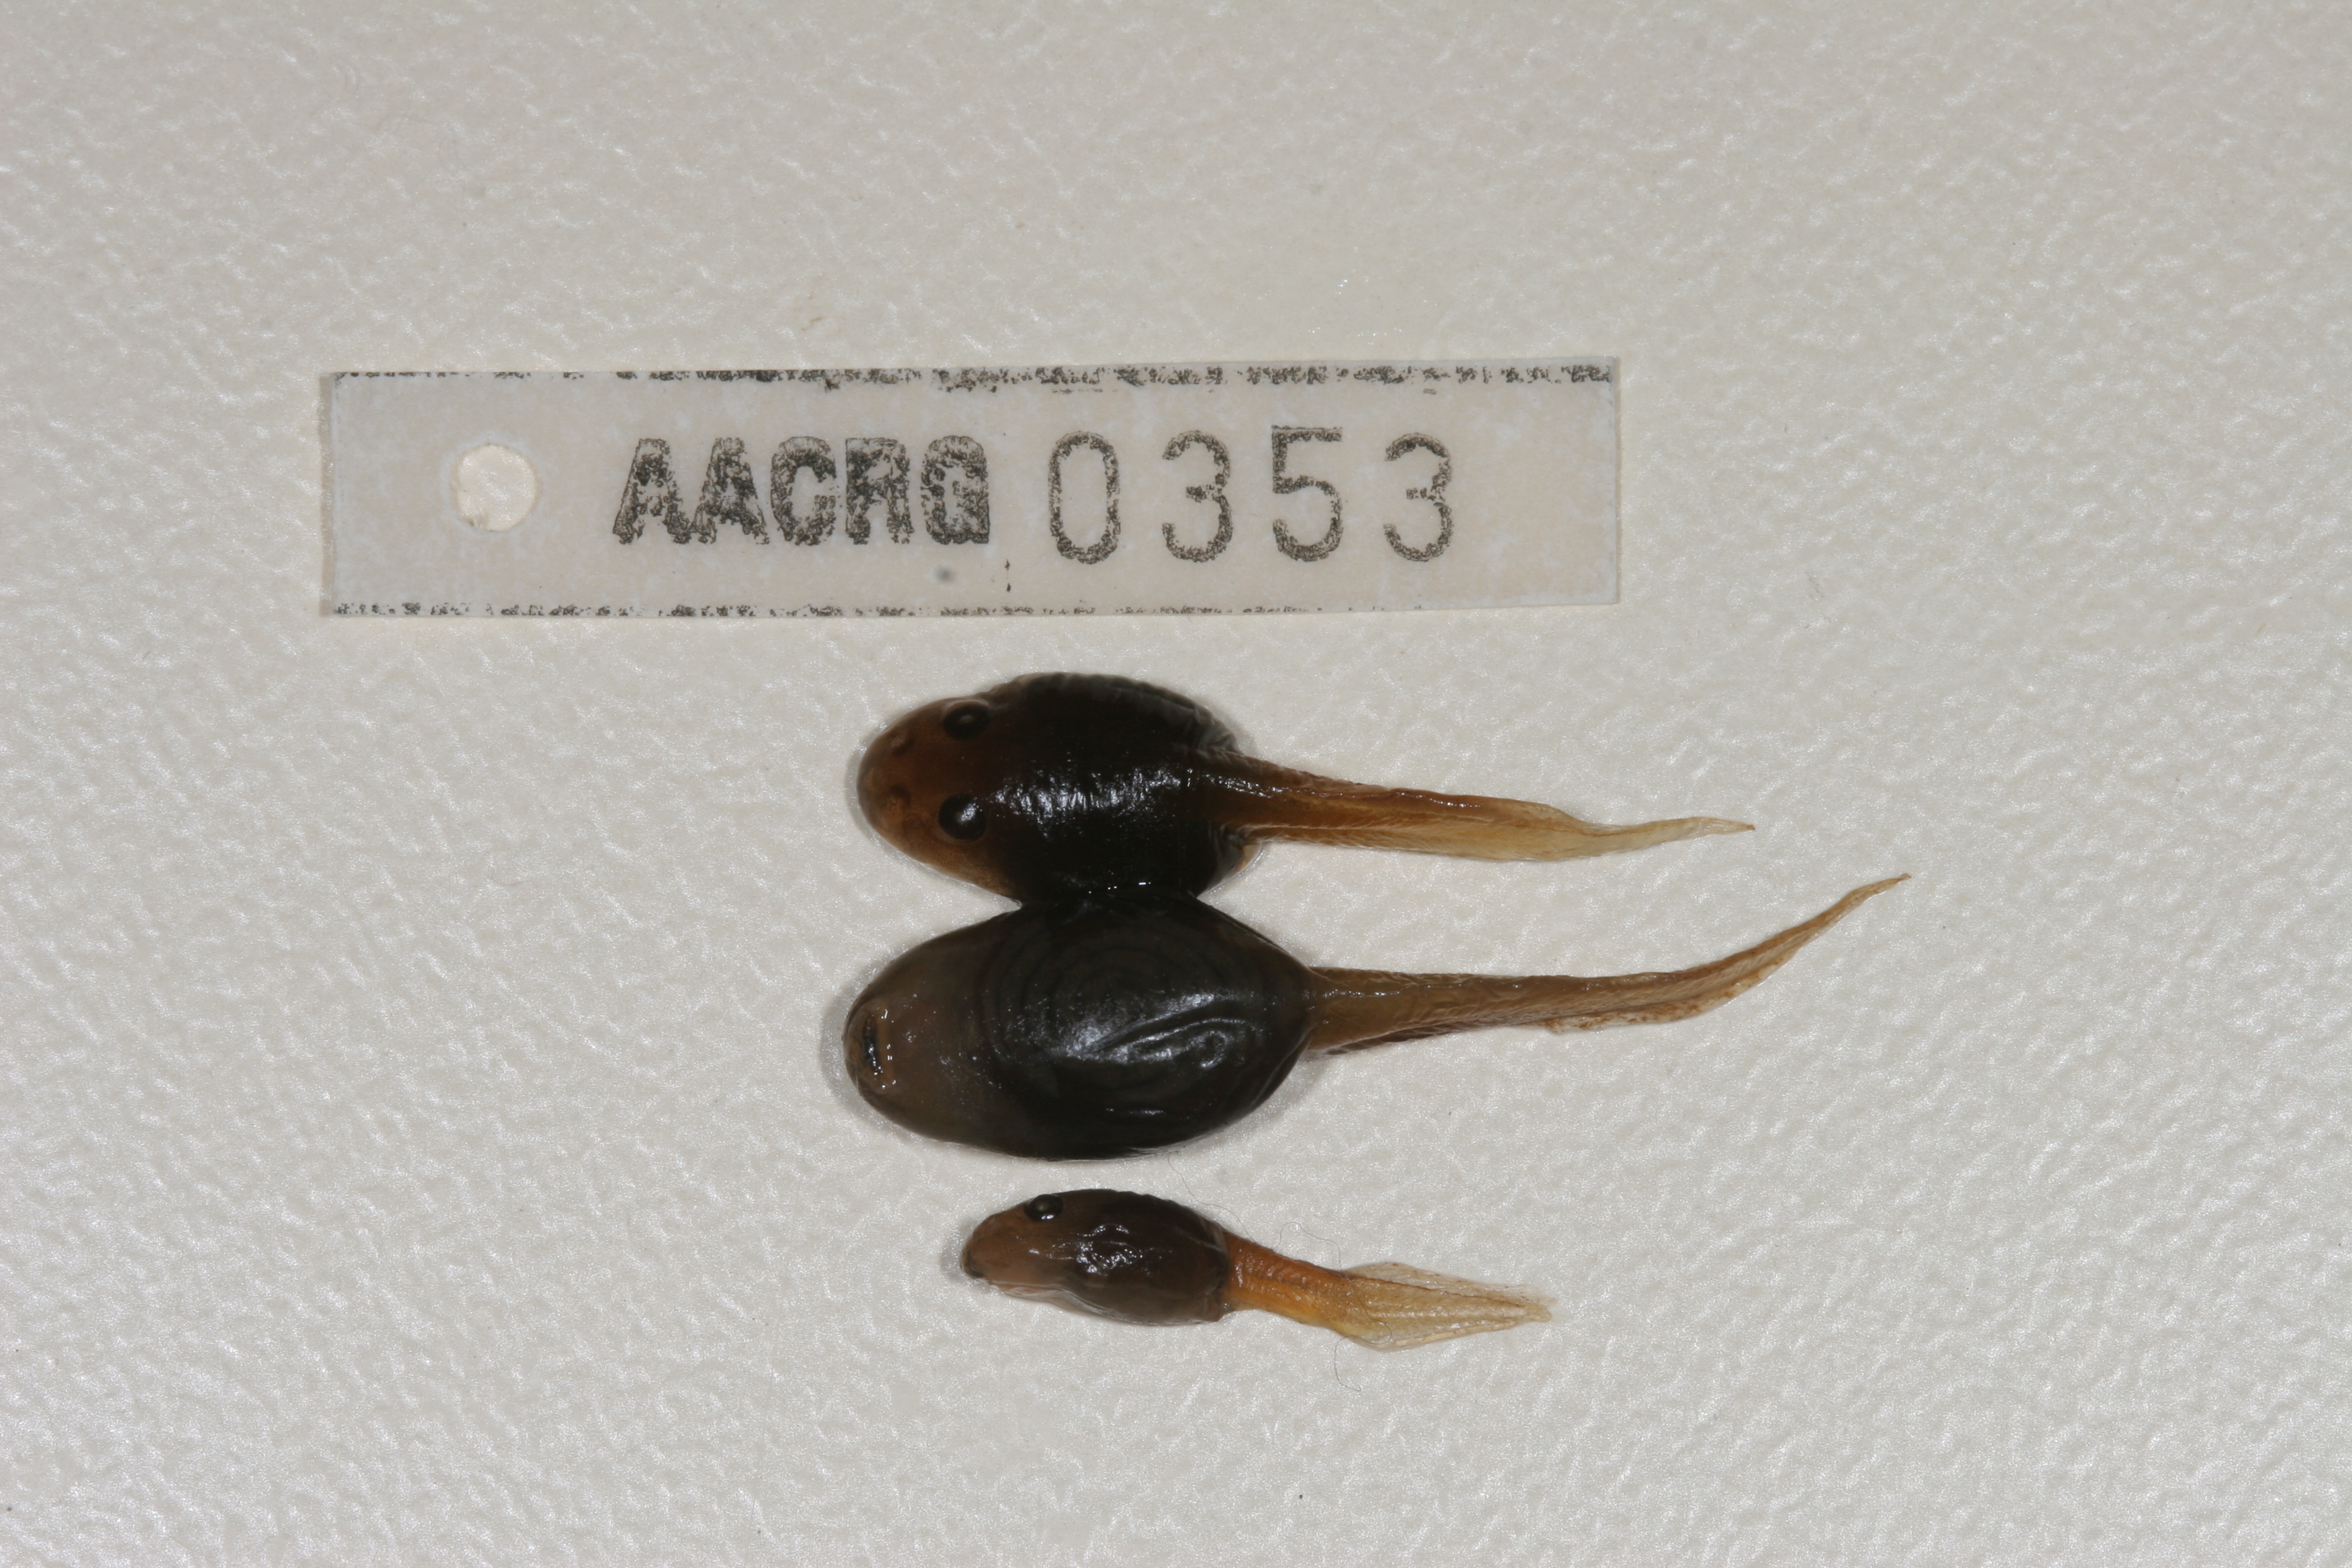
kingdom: Animalia
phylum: Chordata
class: Amphibia
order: Anura
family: Pyxicephalidae
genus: Tomopterna
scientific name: Tomopterna delalandii
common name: Delalande's burrowing bullfrog
